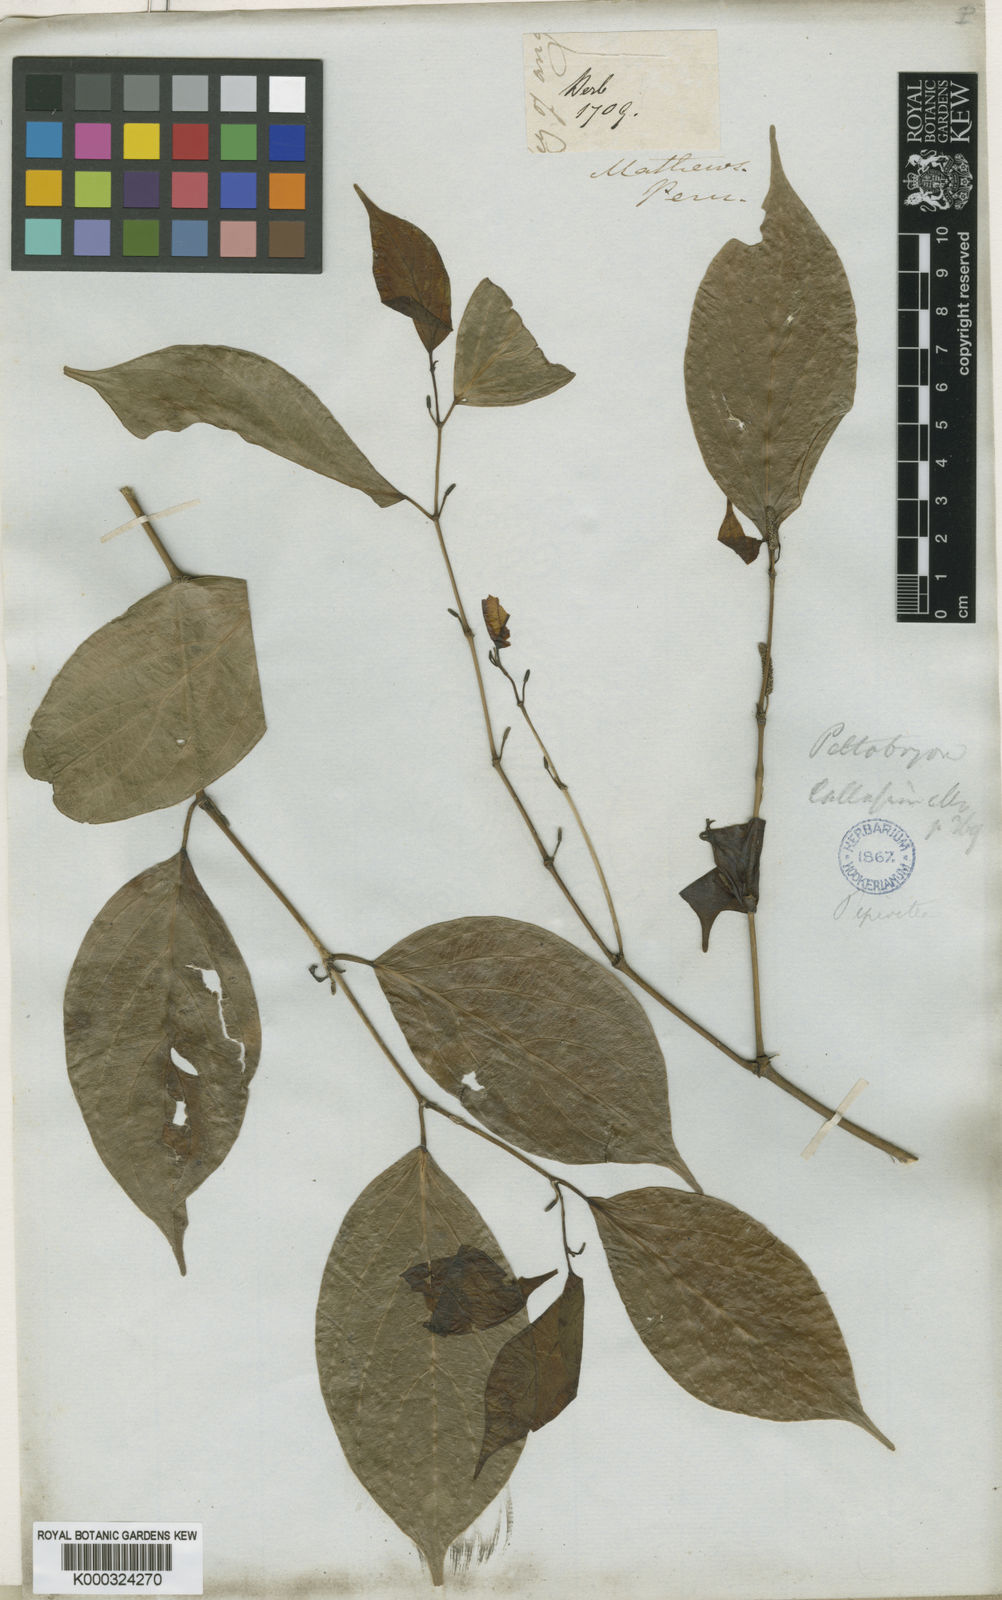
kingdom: Plantae
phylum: Tracheophyta
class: Magnoliopsida
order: Piperales
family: Piperaceae
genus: Piper
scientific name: Piper callosum
